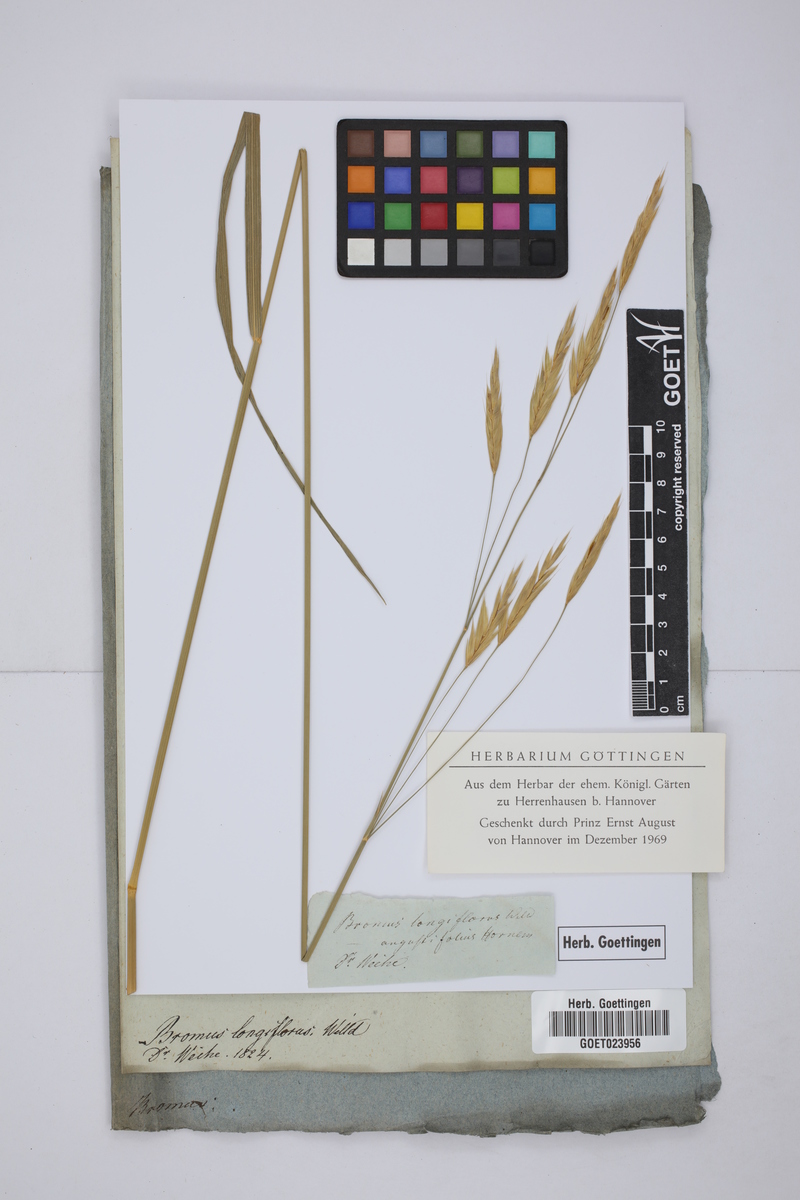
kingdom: Plantae
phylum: Tracheophyta
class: Liliopsida
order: Poales
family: Poaceae
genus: Bromus
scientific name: Bromus erectus
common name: Erect brome
